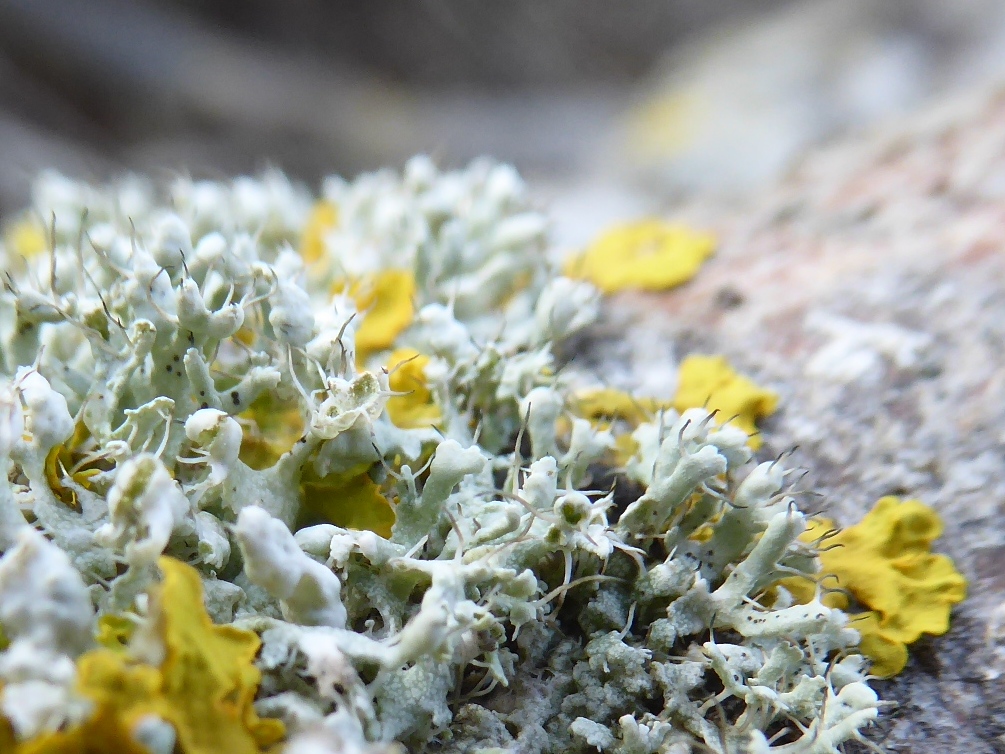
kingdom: Fungi
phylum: Ascomycota
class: Lecanoromycetes
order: Caliciales
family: Physciaceae
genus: Physcia
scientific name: Physcia adscendens
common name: hætte-rosetlav
